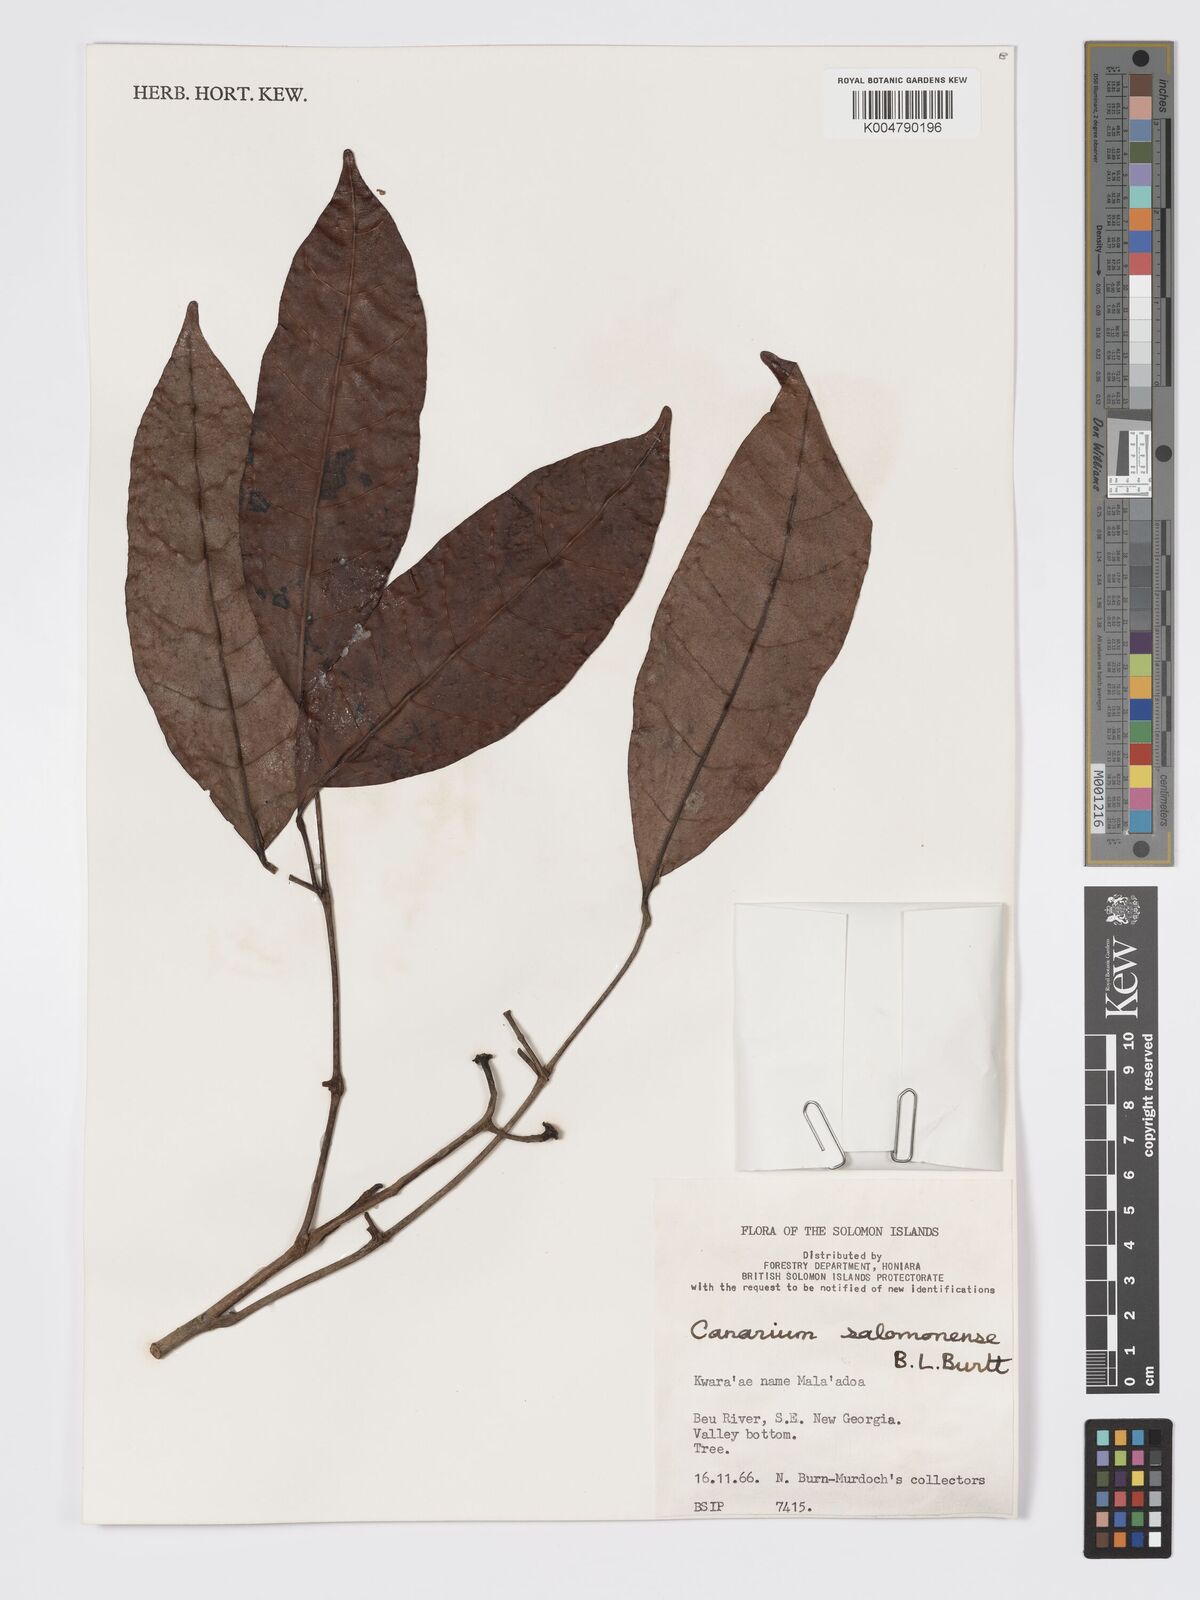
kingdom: Plantae
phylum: Tracheophyta
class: Magnoliopsida
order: Sapindales
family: Burseraceae
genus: Canarium
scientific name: Canarium salomonense
